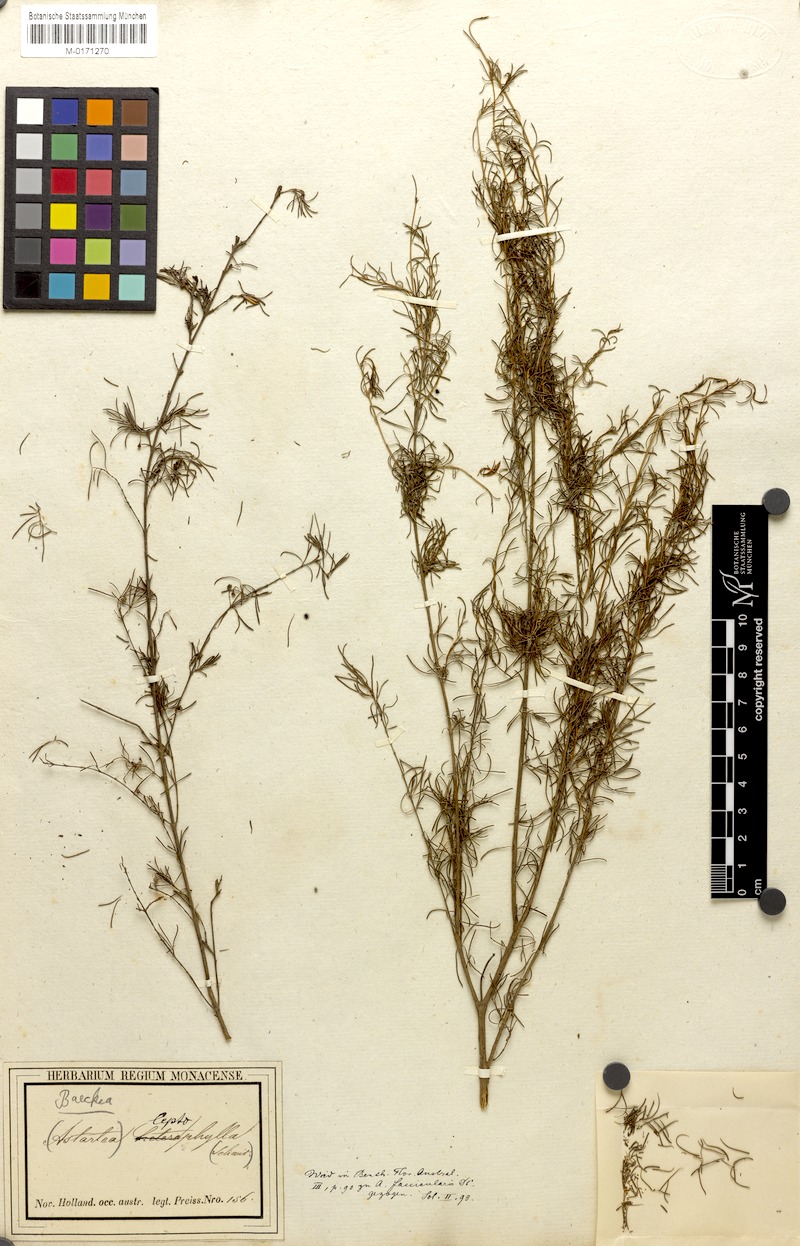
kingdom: Plantae
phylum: Tracheophyta
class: Magnoliopsida
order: Myrtales
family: Myrtaceae
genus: Baeckea
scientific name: Baeckea leptophylla
